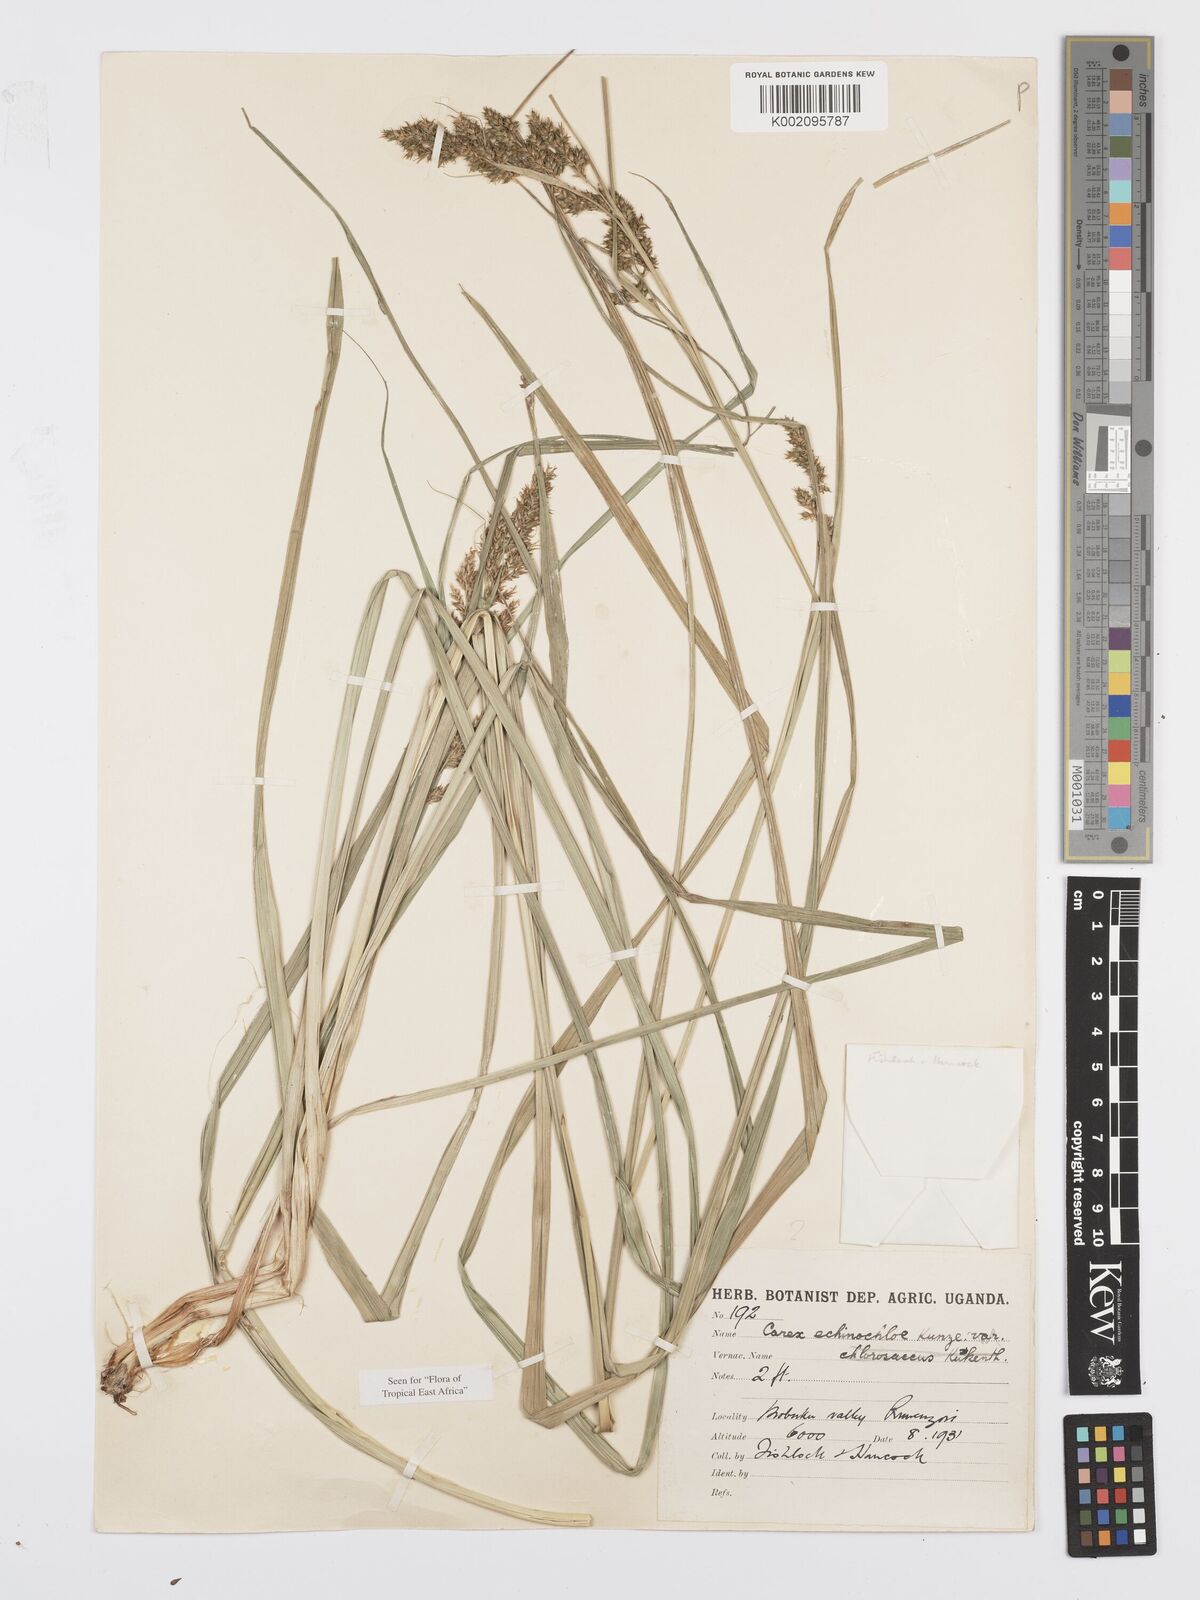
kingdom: Plantae
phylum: Tracheophyta
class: Liliopsida
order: Poales
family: Cyperaceae
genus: Carex
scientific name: Carex echinochloe
